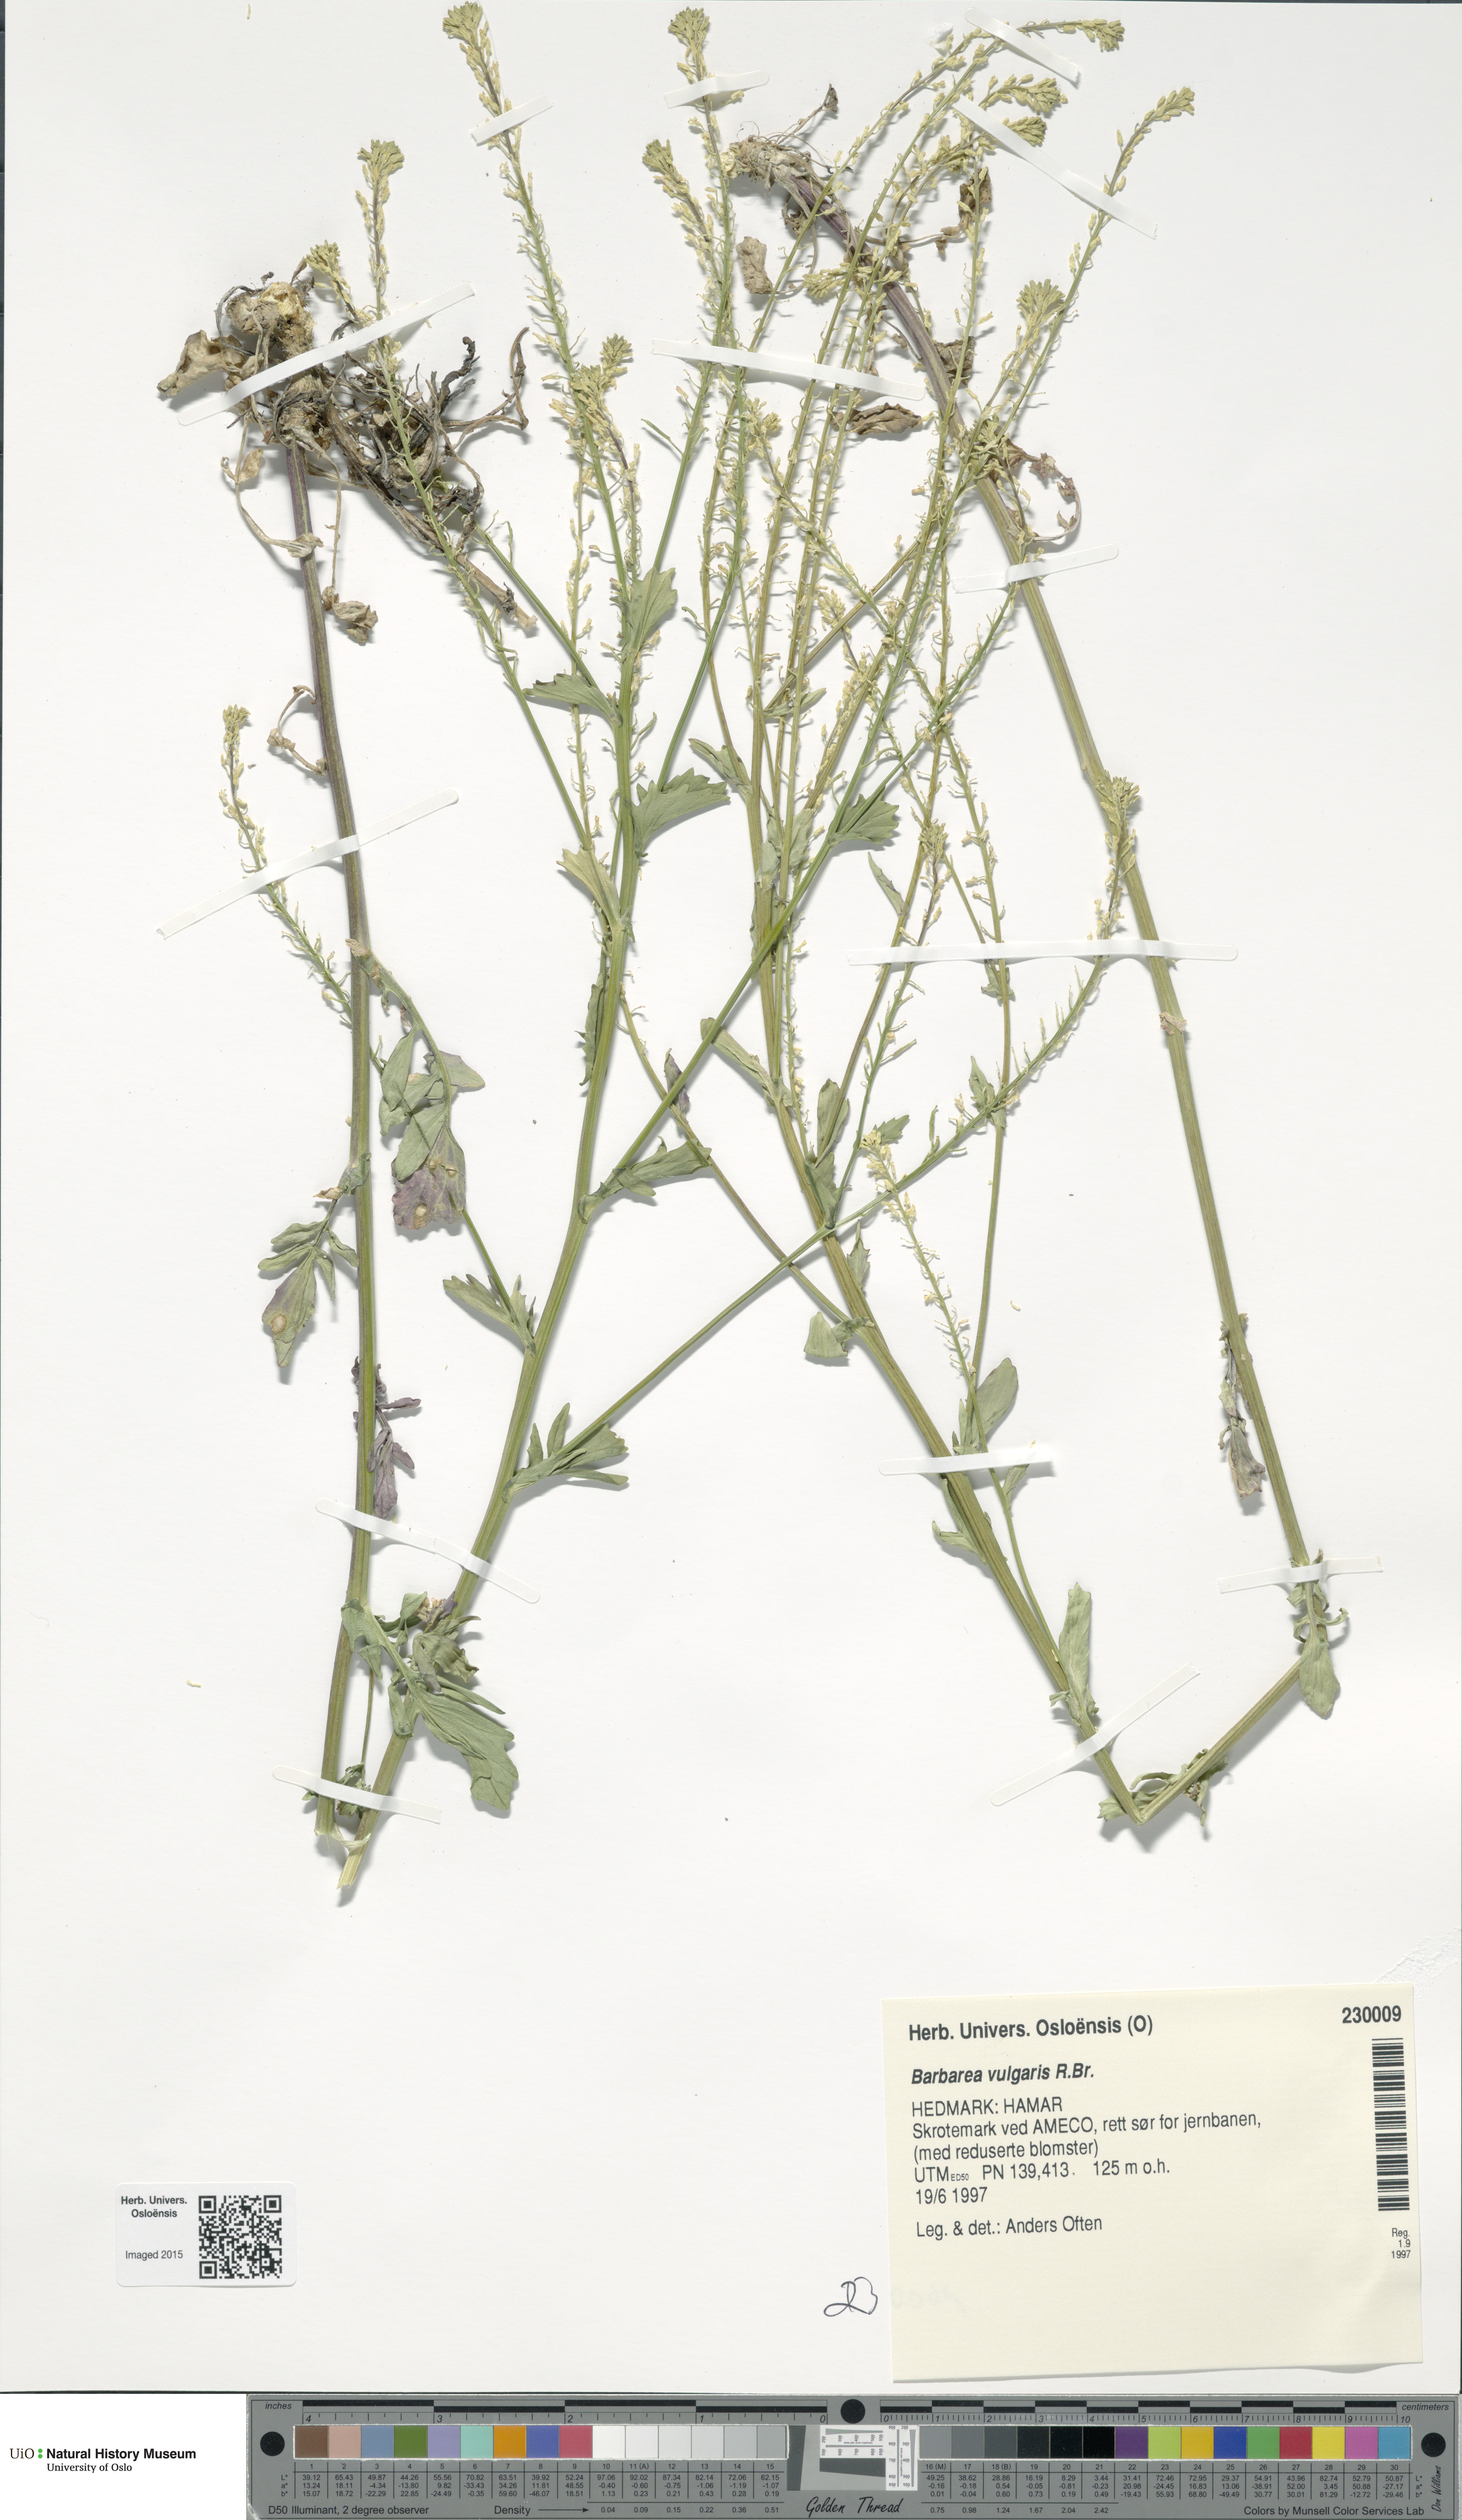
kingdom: Plantae
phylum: Tracheophyta
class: Magnoliopsida
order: Brassicales
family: Brassicaceae
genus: Barbarea
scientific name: Barbarea vulgaris
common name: Cressy-greens
